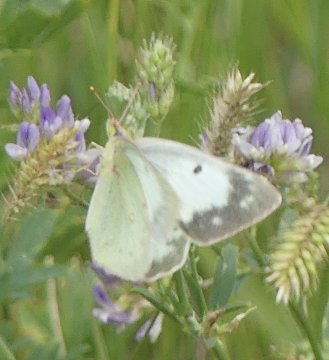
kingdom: Animalia
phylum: Arthropoda
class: Insecta
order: Lepidoptera
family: Pieridae
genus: Colias
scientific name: Colias philodice
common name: Clouded Sulphur
